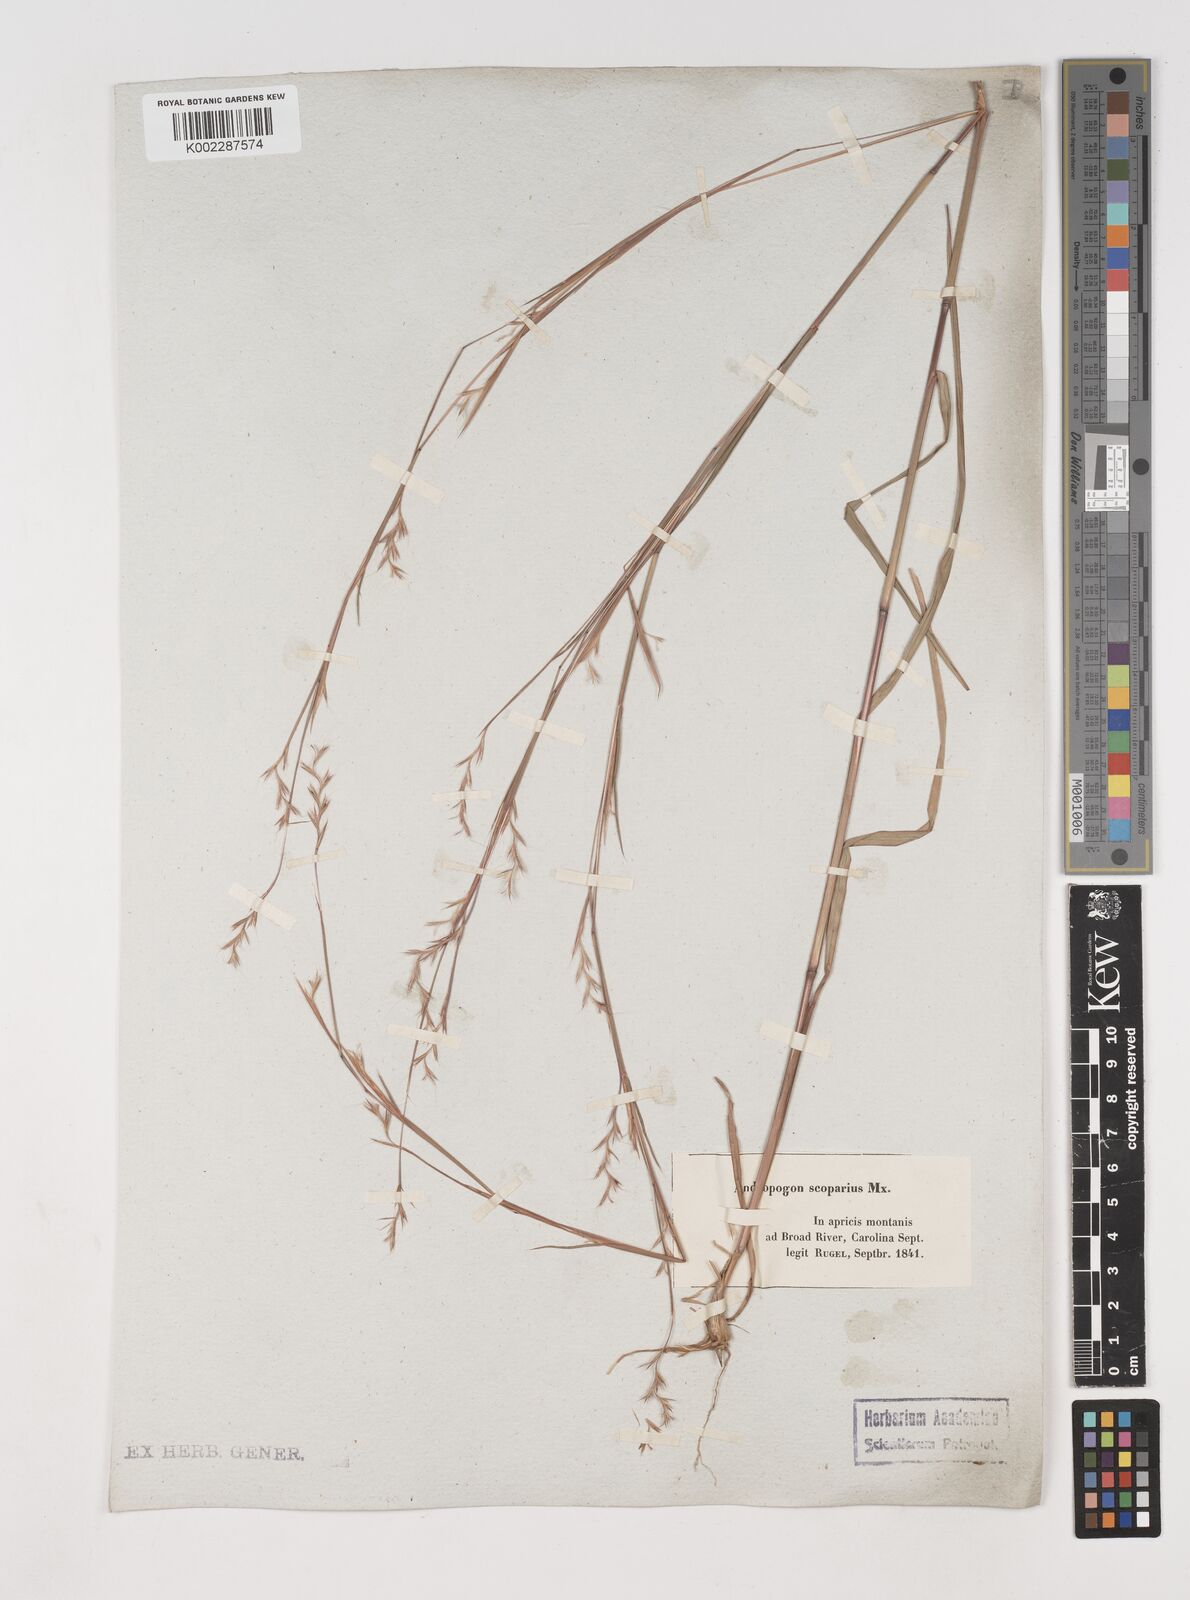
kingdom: Plantae
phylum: Tracheophyta
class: Liliopsida
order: Poales
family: Poaceae
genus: Schizachyrium
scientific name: Schizachyrium scoparium
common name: Little bluestem
